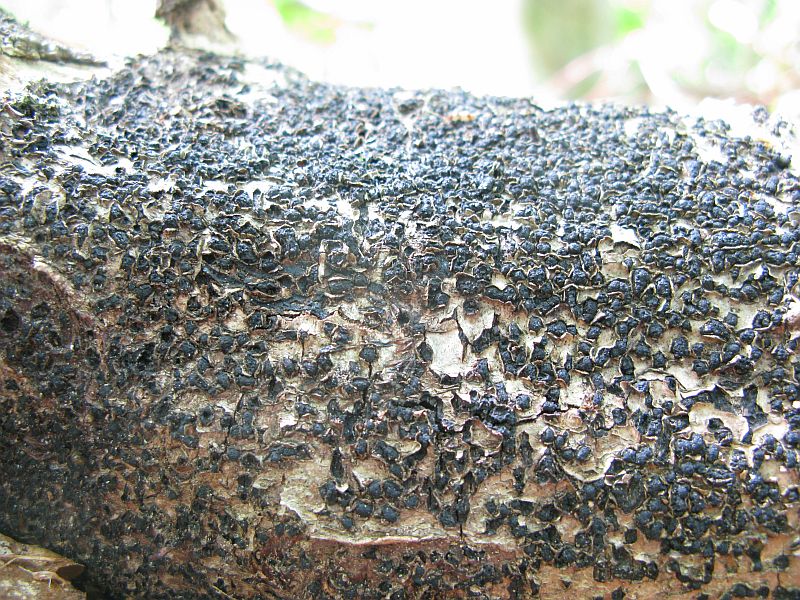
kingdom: Fungi
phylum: Ascomycota
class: Sordariomycetes
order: Xylariales
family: Melogrammataceae
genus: Melogramma
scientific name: Melogramma spiniferum
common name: bøgefod-kulhals
